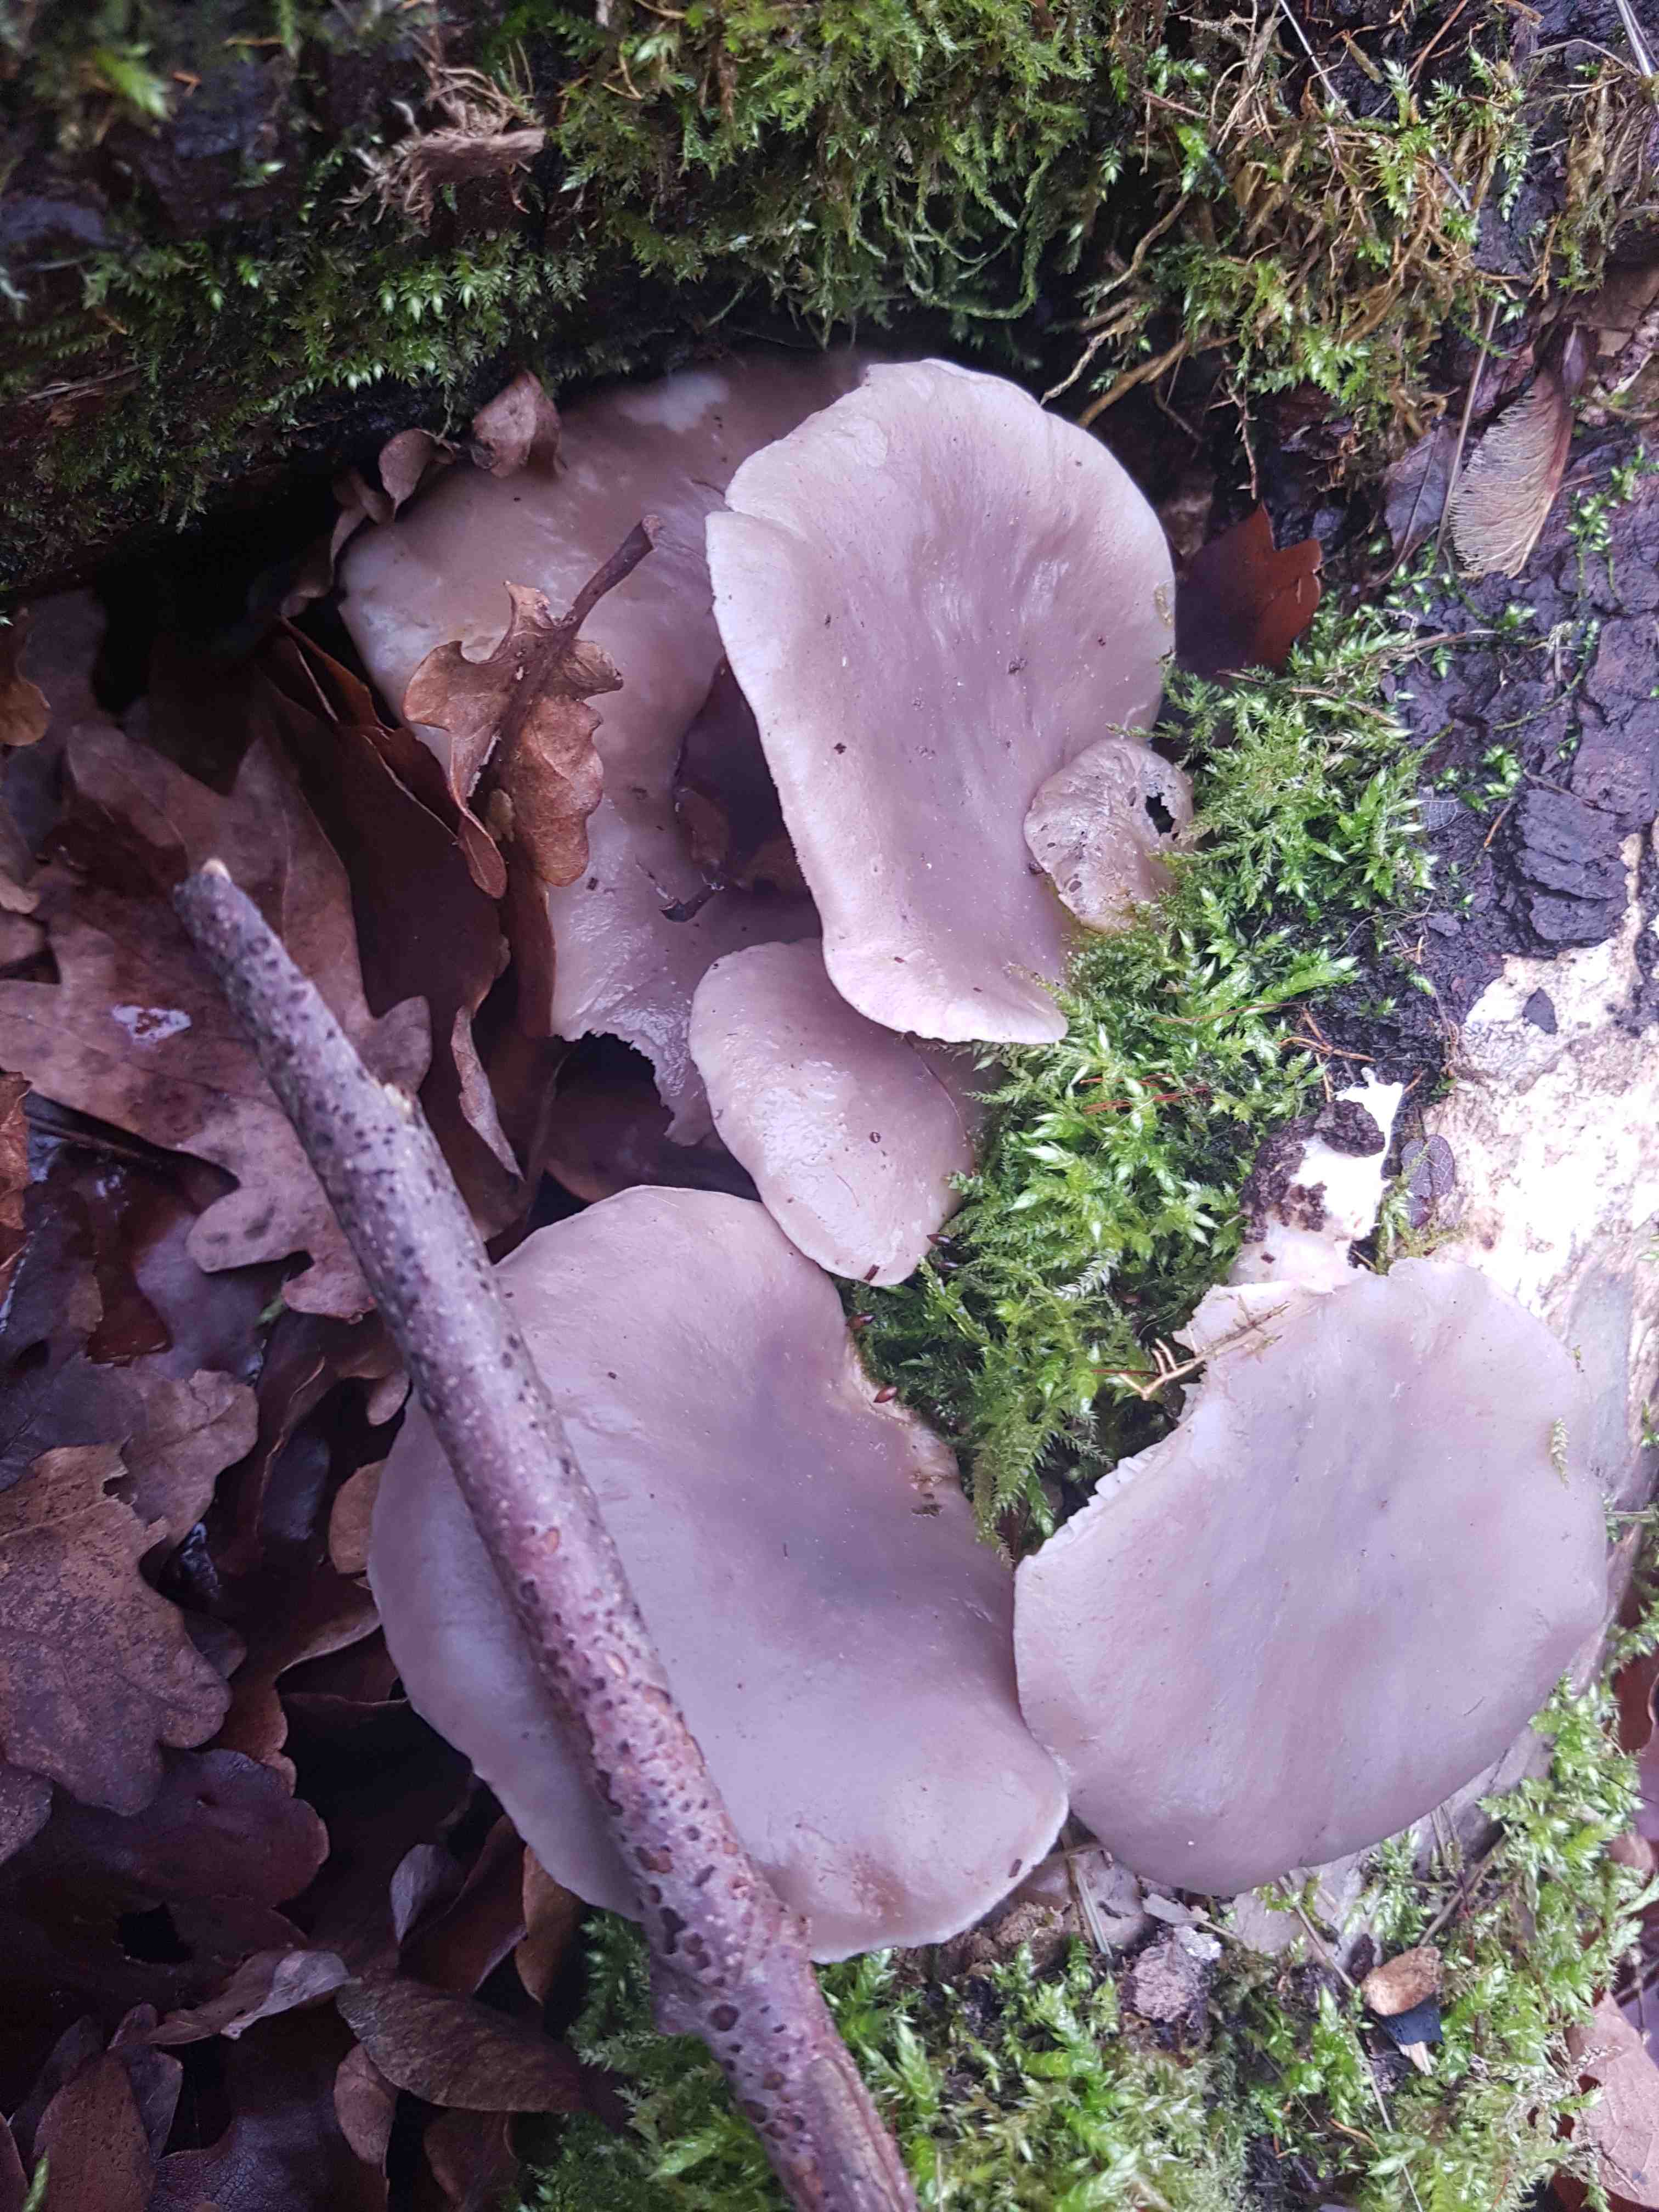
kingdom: Fungi
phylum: Basidiomycota
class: Agaricomycetes
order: Agaricales
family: Pleurotaceae
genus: Pleurotus
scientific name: Pleurotus ostreatus
